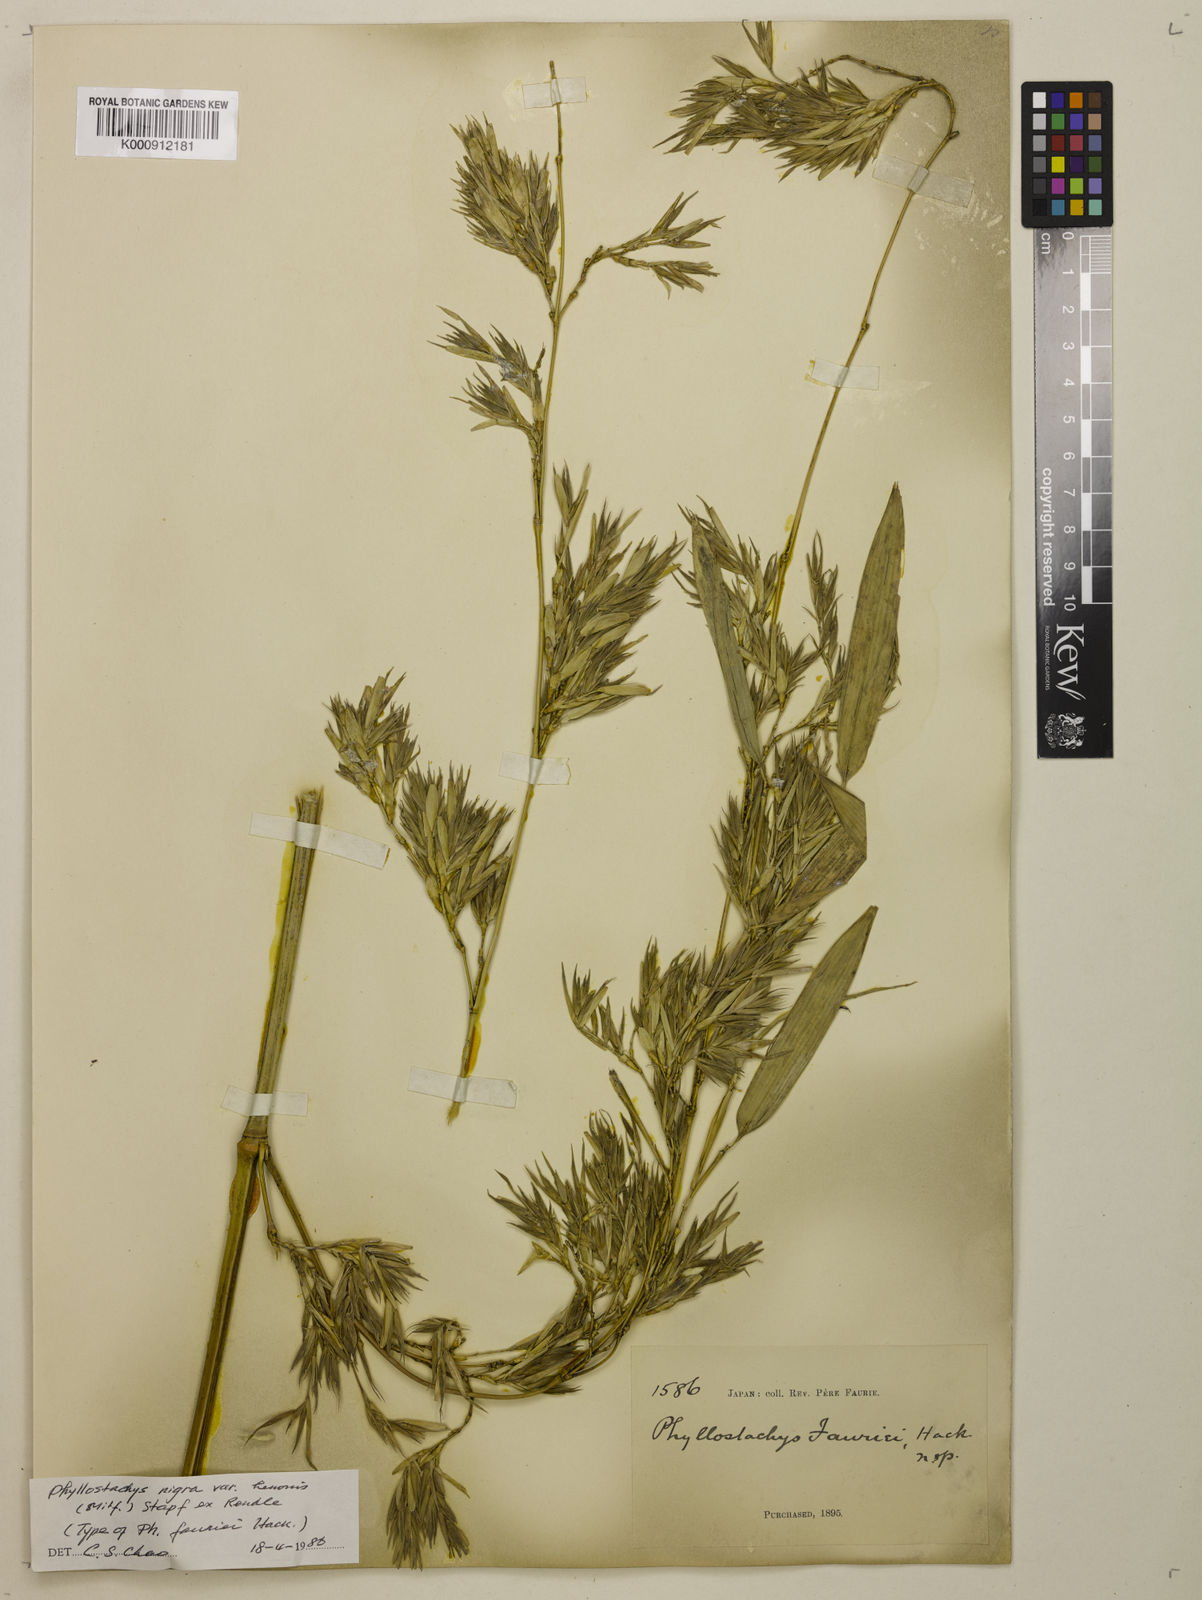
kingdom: Plantae
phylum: Tracheophyta
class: Liliopsida
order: Poales
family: Poaceae
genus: Phyllostachys
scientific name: Phyllostachys nigra
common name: Black bamboo
